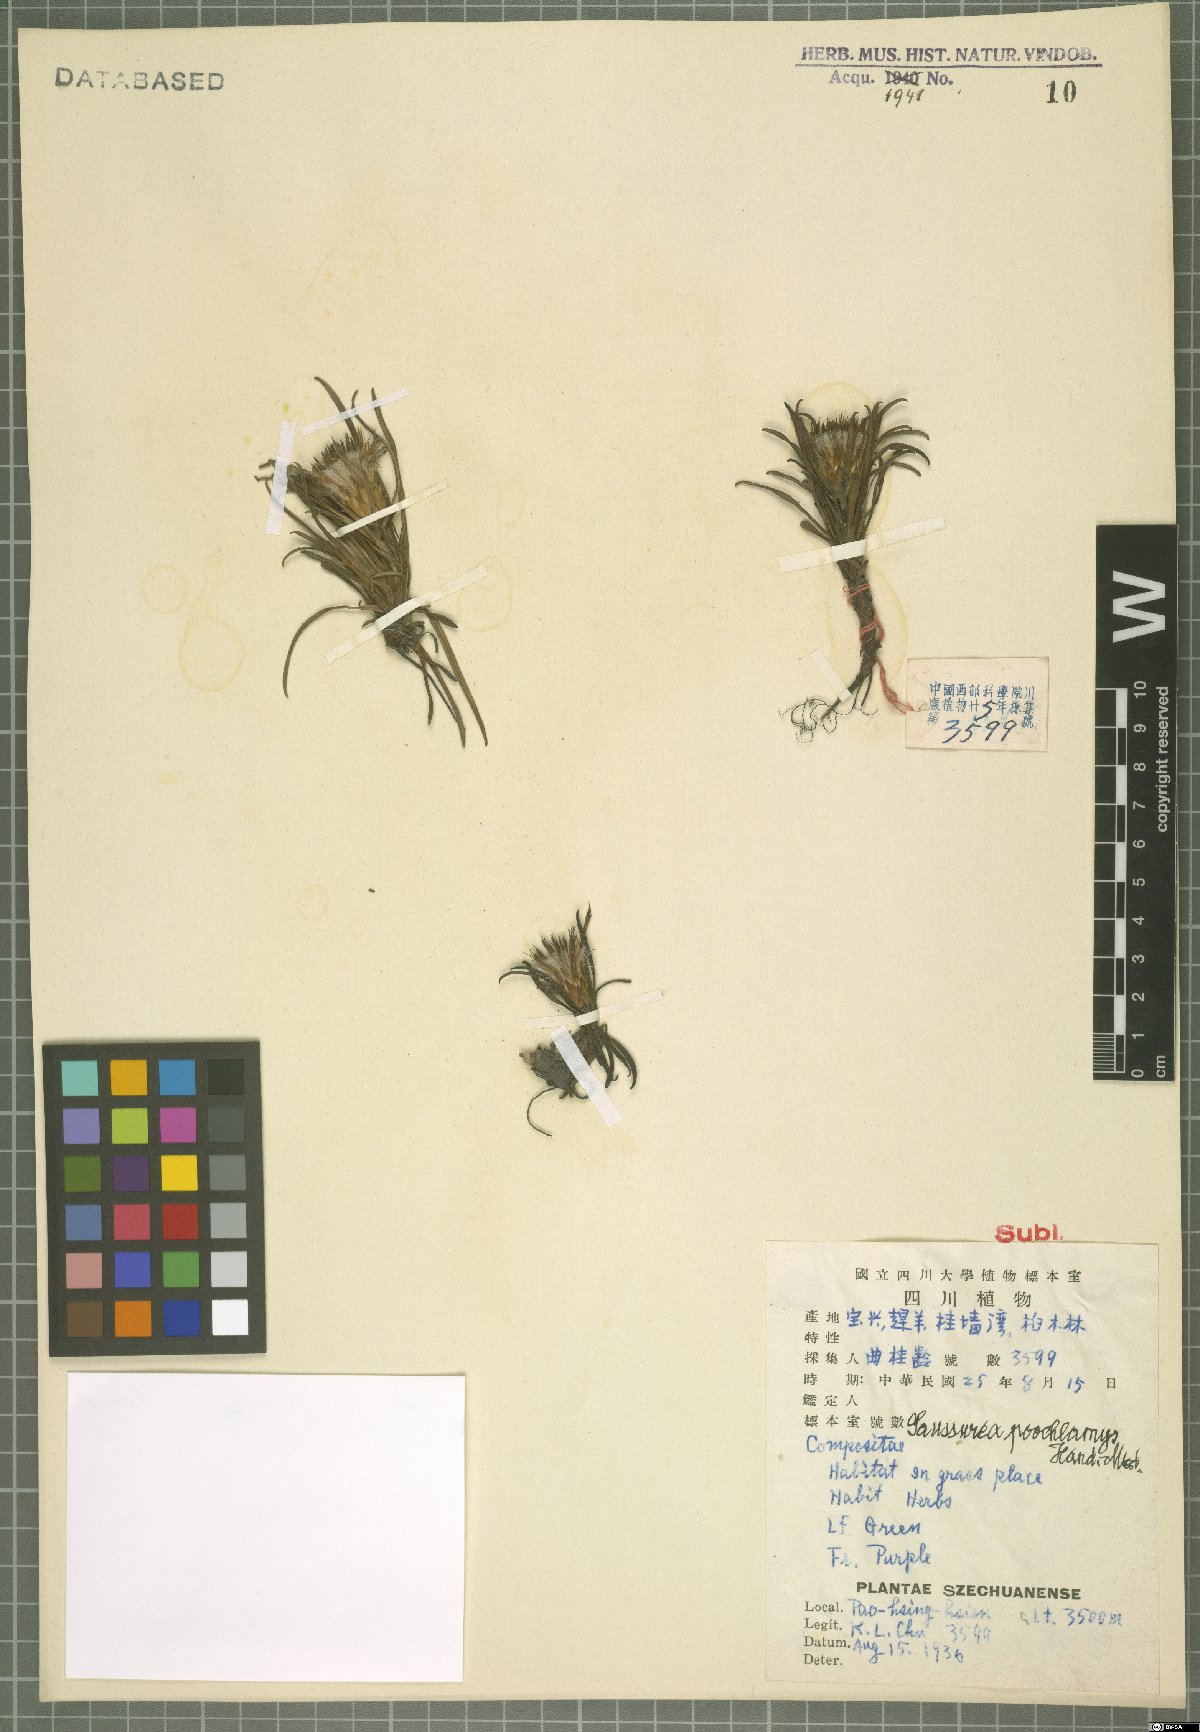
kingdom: Plantae
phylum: Tracheophyta
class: Magnoliopsida
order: Asterales
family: Asteraceae
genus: Saussurea
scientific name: Saussurea poochlamys
